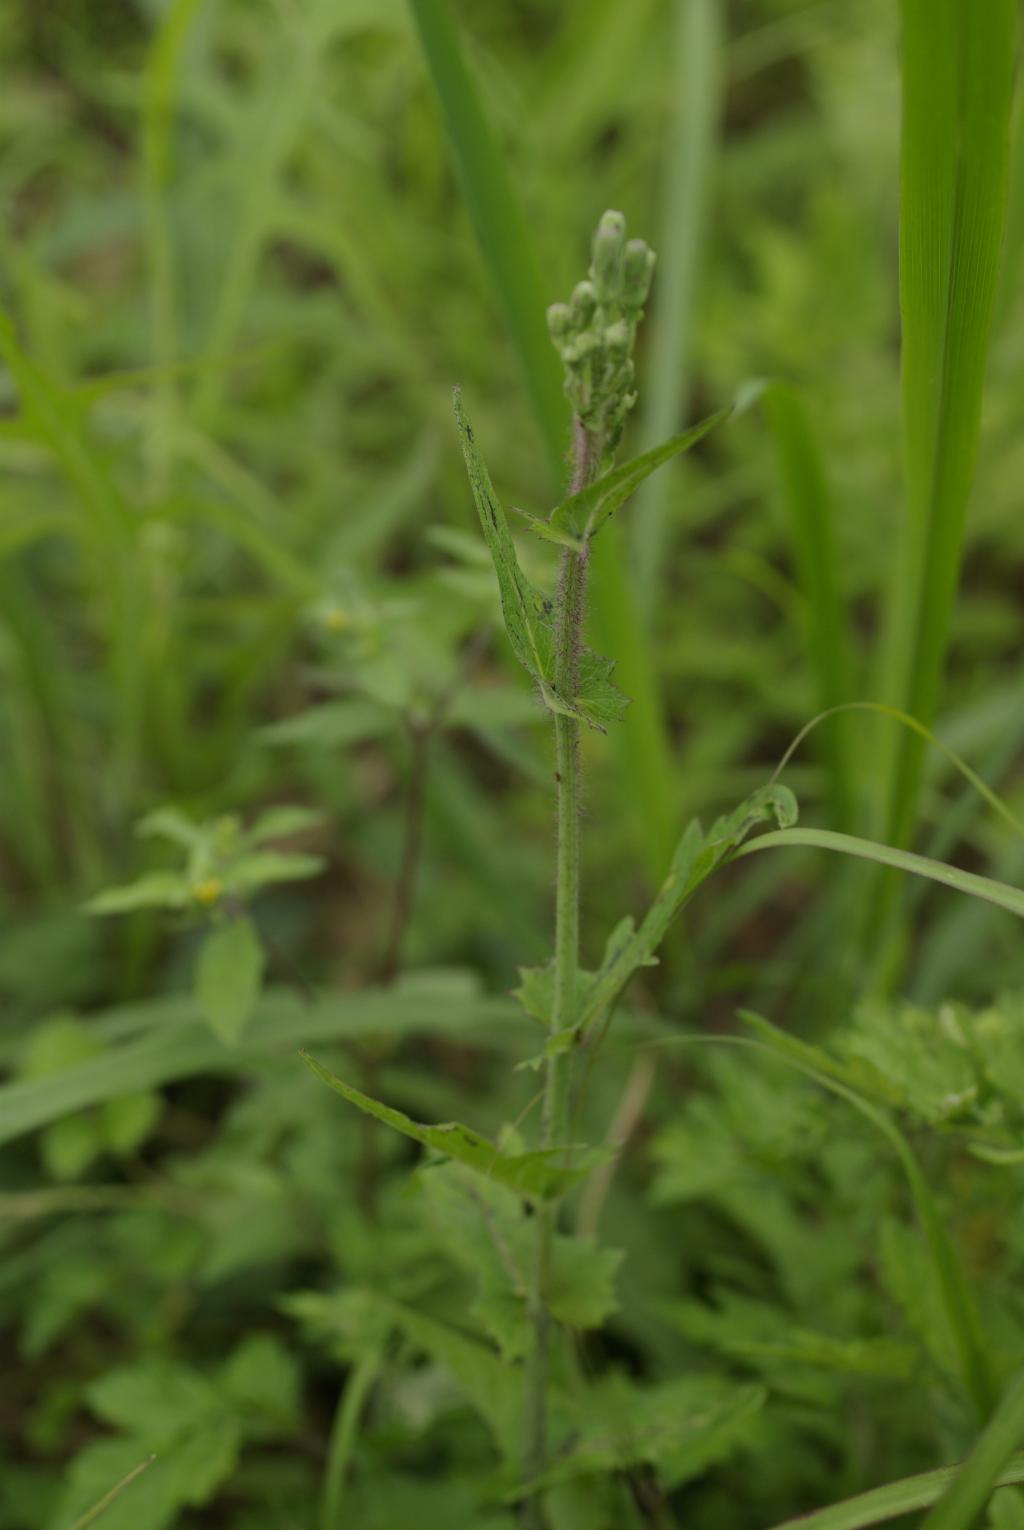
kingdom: Plantae
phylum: Tracheophyta
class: Magnoliopsida
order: Asterales
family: Asteraceae
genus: Lactuca
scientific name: Lactuca formosana
